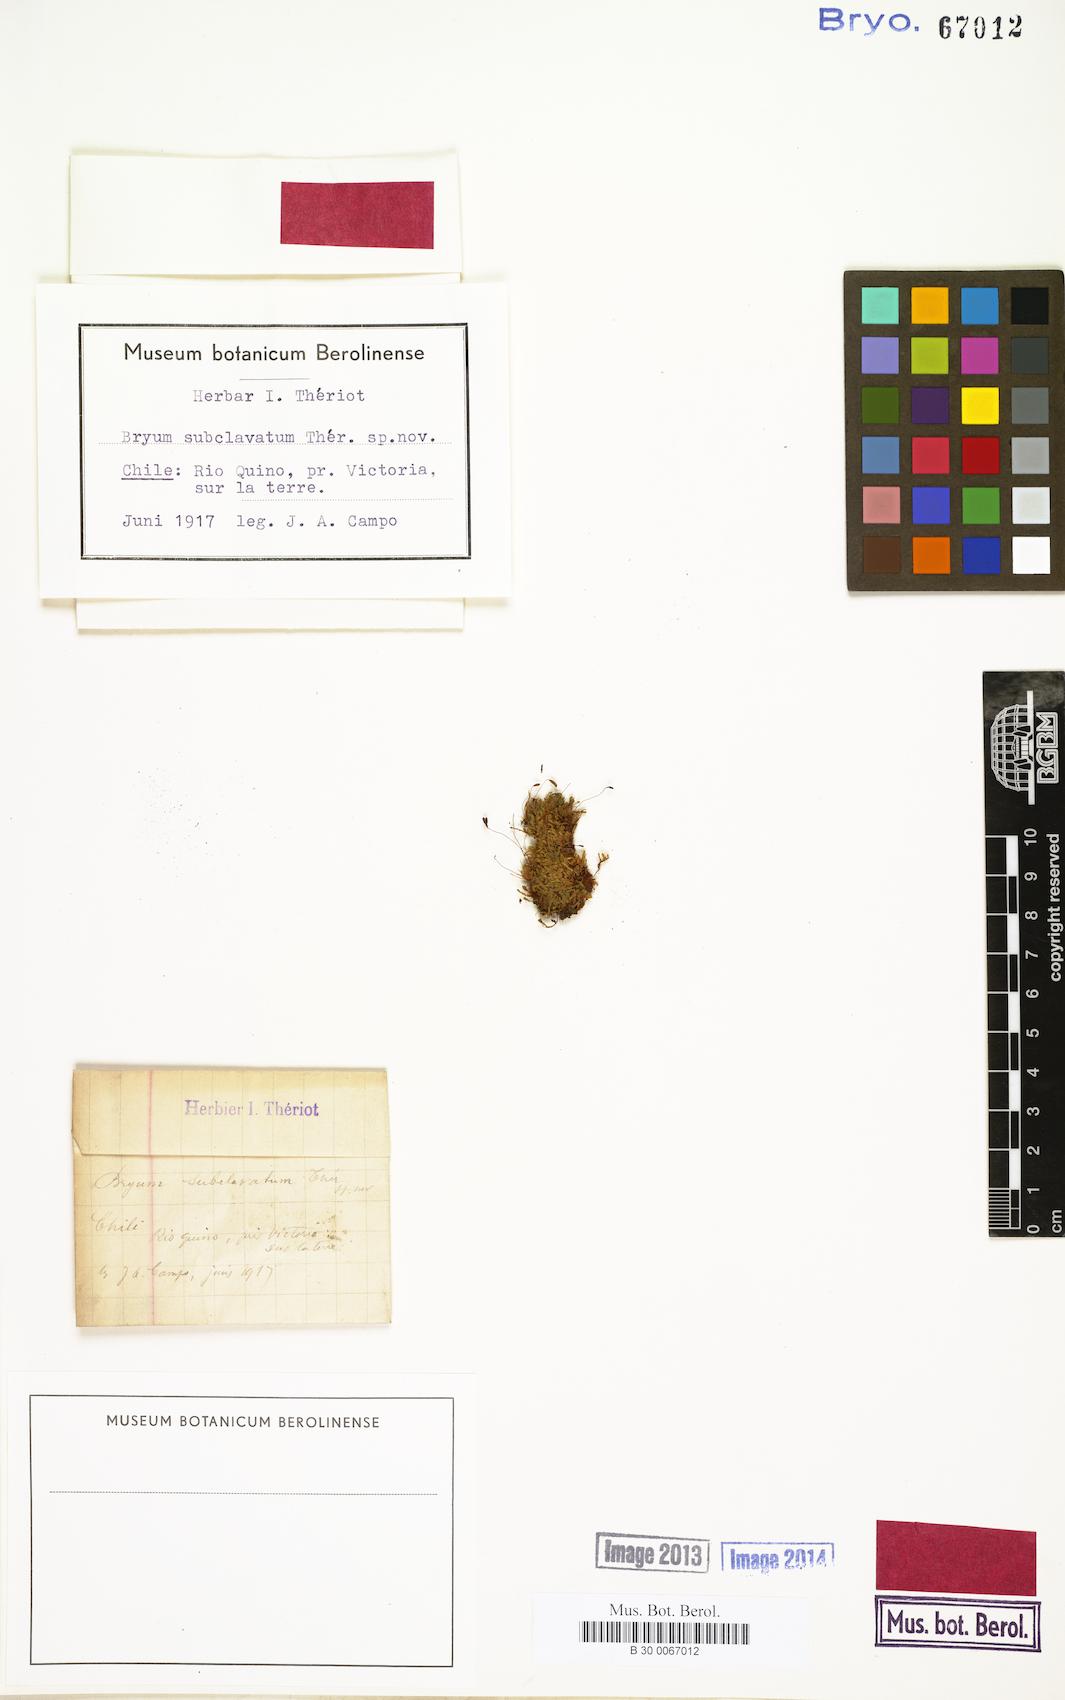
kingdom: Plantae
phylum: Bryophyta
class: Bryopsida
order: Bryales
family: Bryaceae
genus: Bryum
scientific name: Bryum subclavatum
